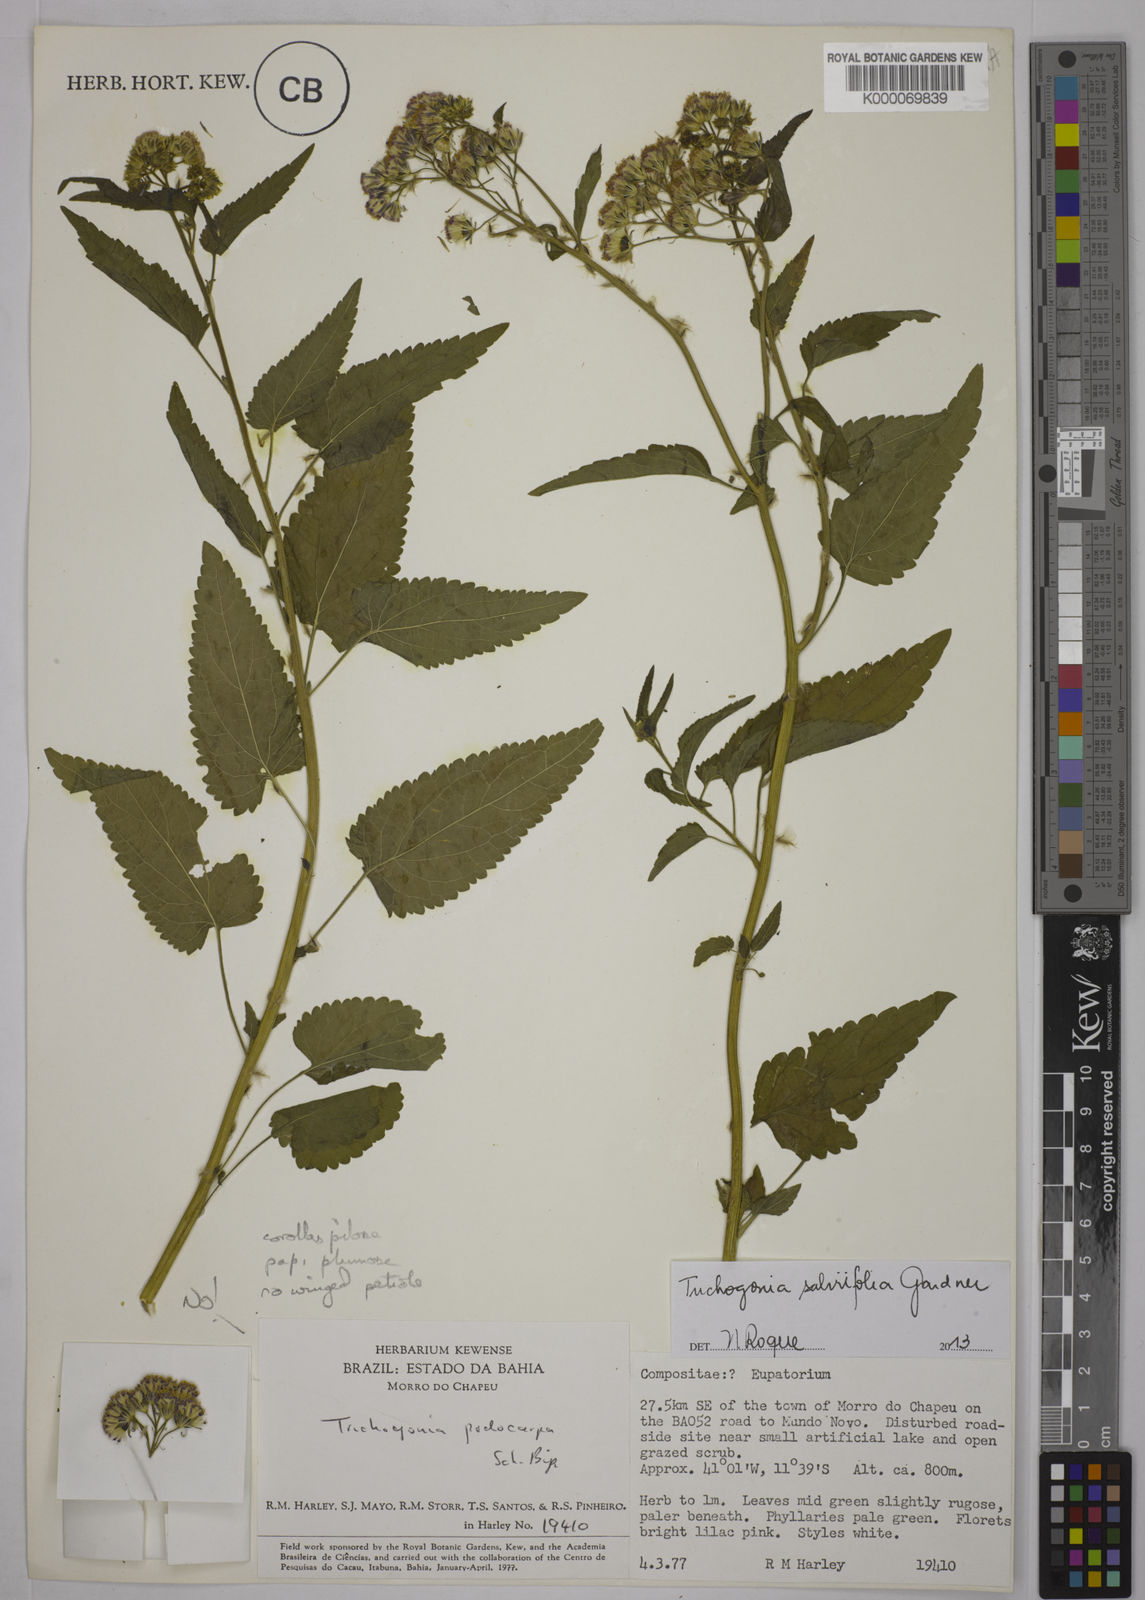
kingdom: Plantae
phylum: Tracheophyta
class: Magnoliopsida
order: Asterales
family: Asteraceae
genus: Trichogonia
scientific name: Trichogonia salviifolia
